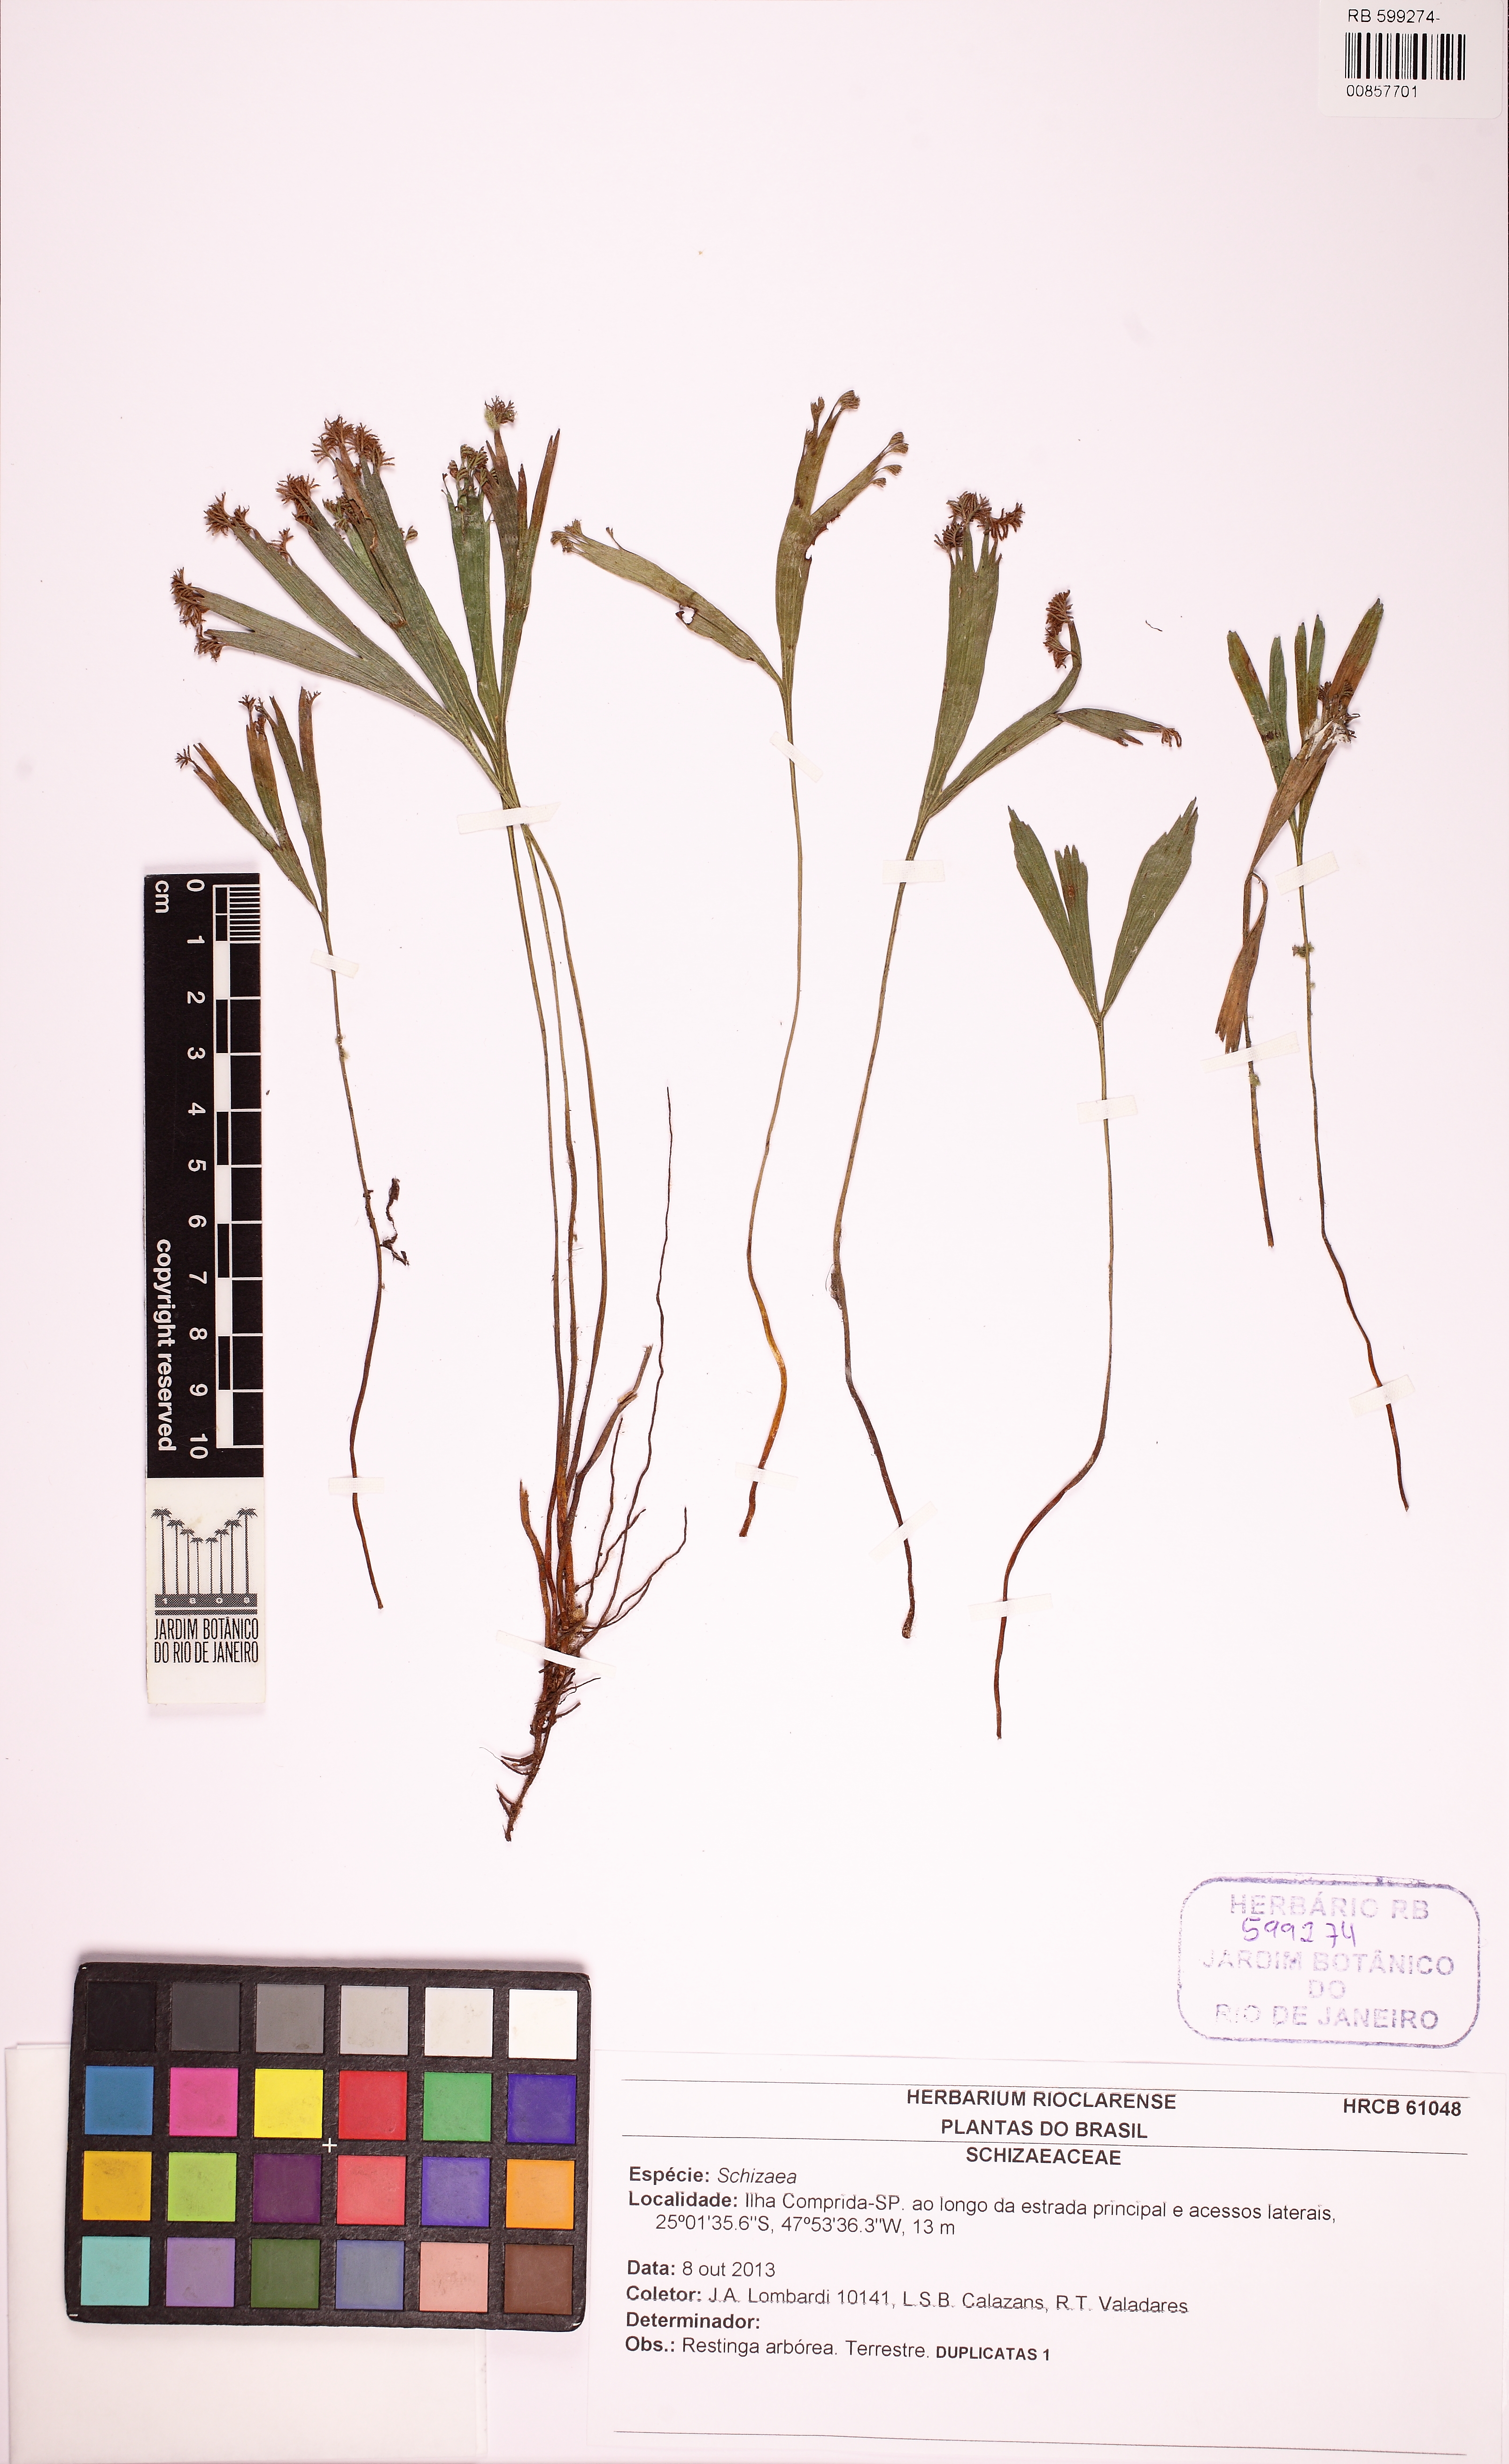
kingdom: Plantae
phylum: Tracheophyta
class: Polypodiopsida
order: Schizaeales
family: Schizaeaceae
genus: Schizaea
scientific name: Schizaea elegans
